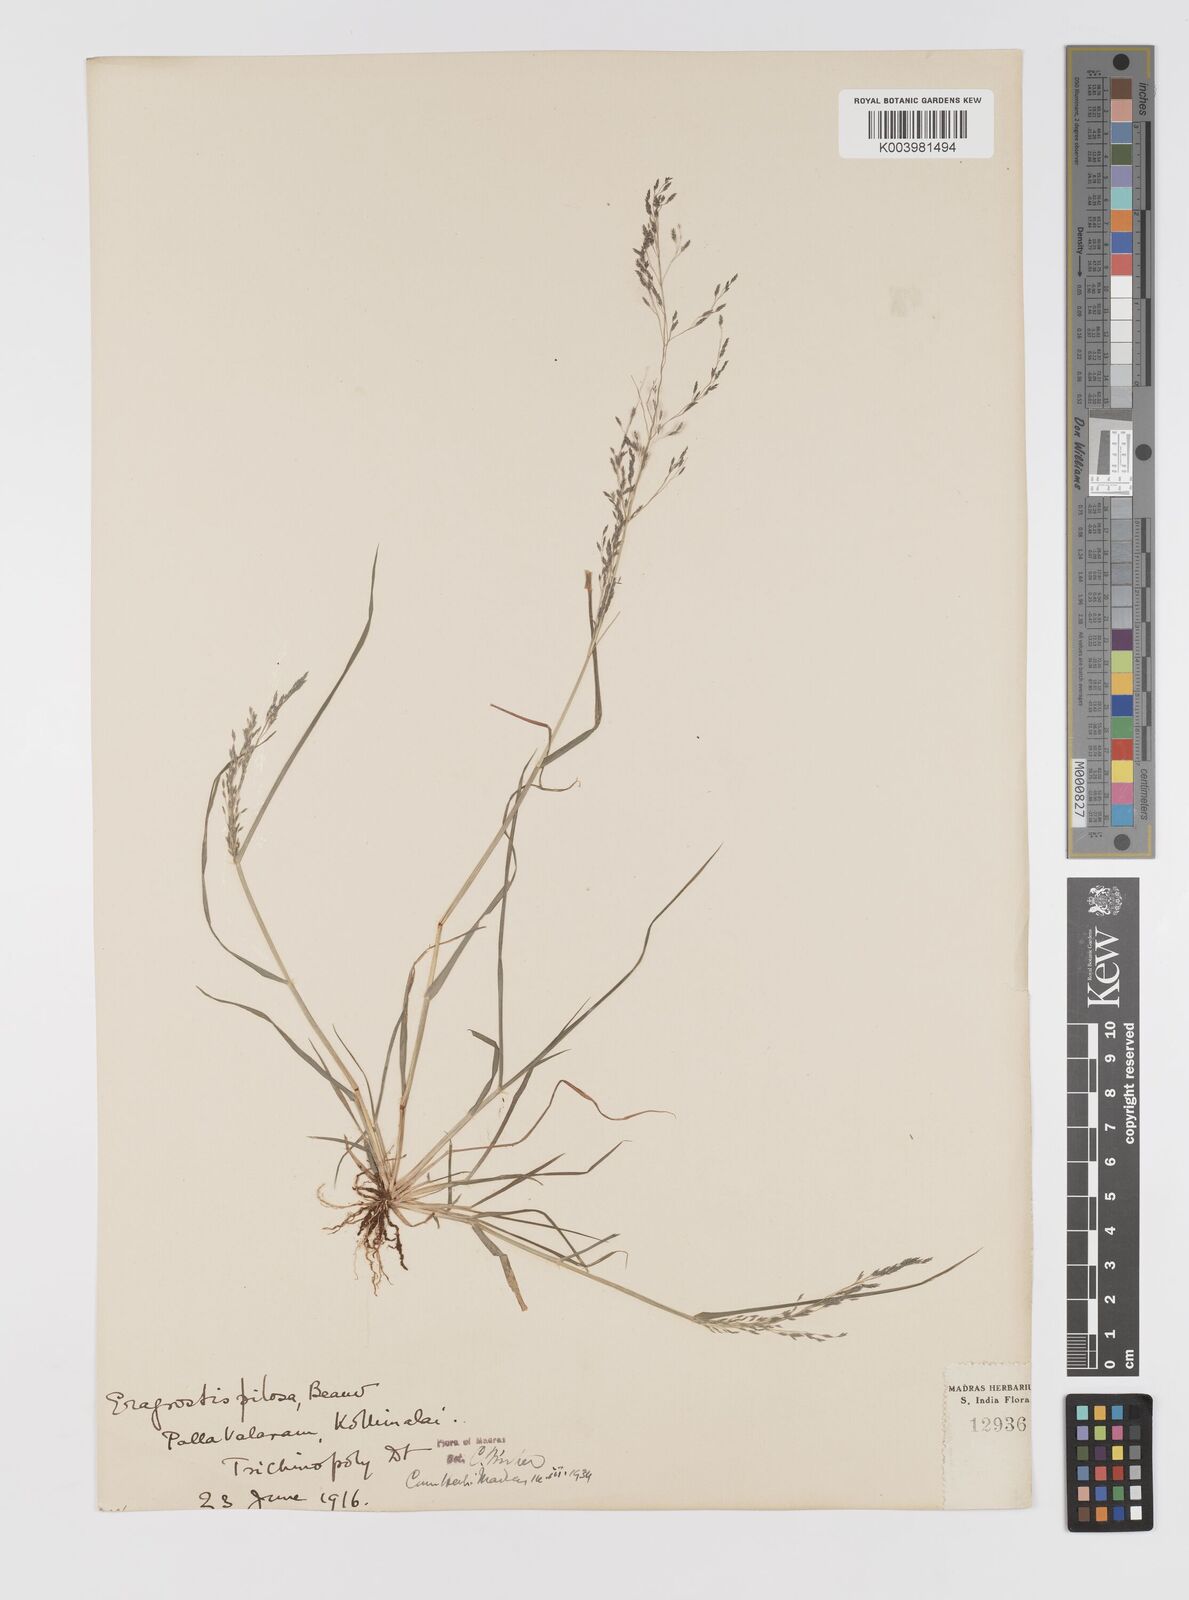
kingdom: Plantae
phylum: Tracheophyta
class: Liliopsida
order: Poales
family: Poaceae
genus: Eragrostis
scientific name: Eragrostis pilosa
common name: Indian lovegrass
